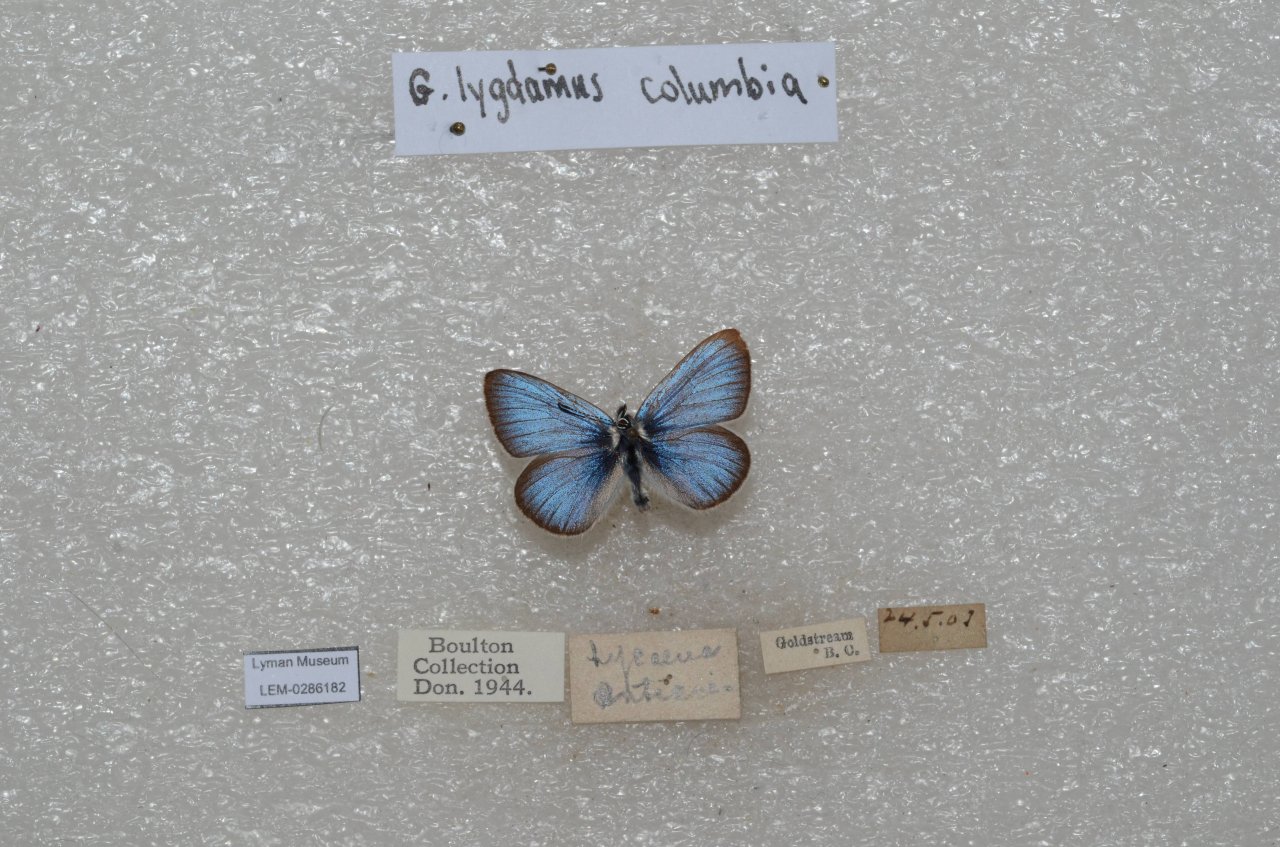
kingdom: Animalia
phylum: Arthropoda
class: Insecta
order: Lepidoptera
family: Lycaenidae
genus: Glaucopsyche
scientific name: Glaucopsyche lygdamus
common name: Silvery Blue
